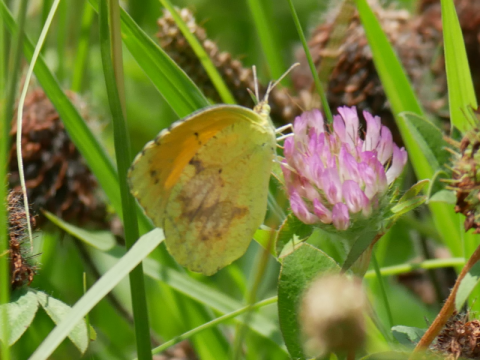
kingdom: Animalia
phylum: Arthropoda
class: Insecta
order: Lepidoptera
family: Pieridae
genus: Abaeis
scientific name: Abaeis nicippe
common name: Sleepy Orange
